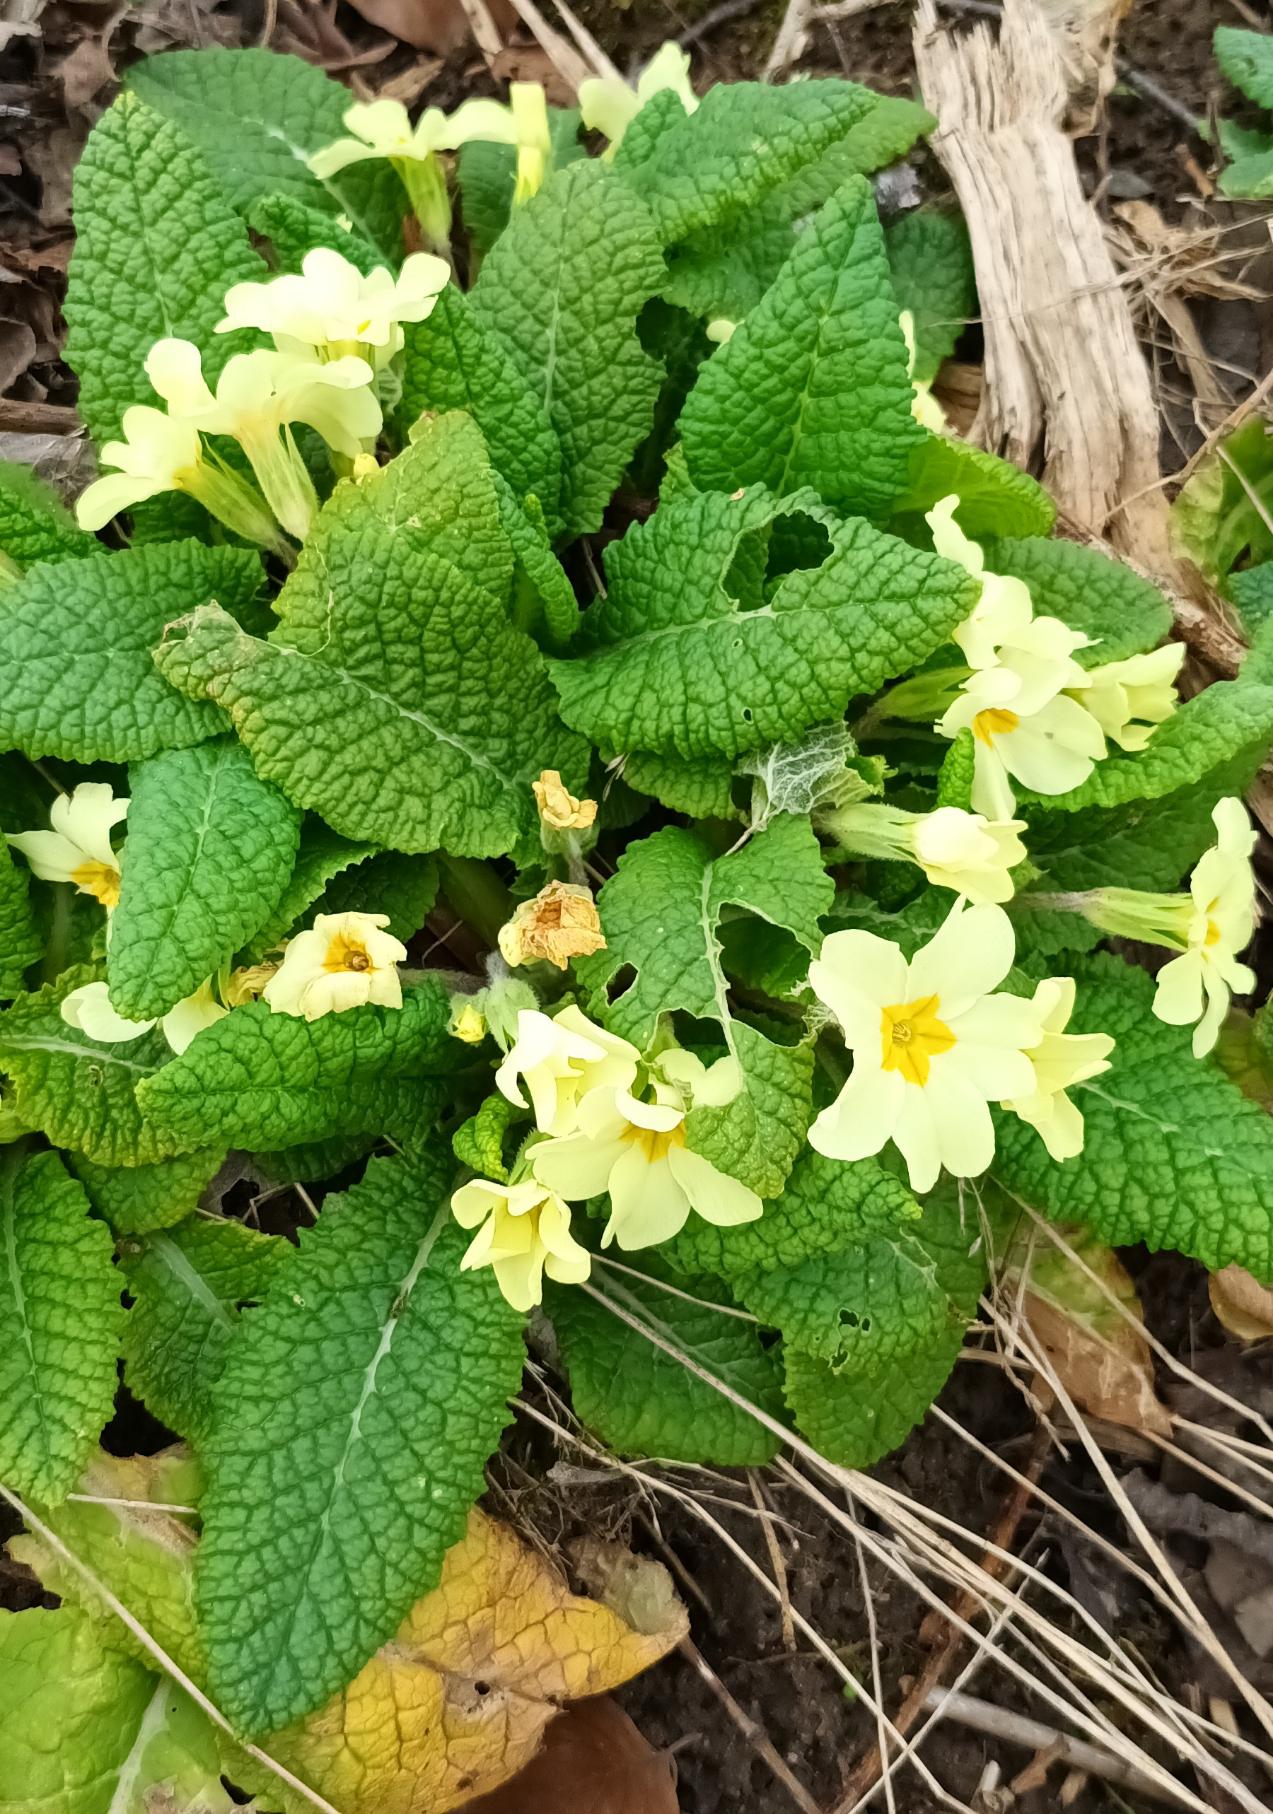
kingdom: Plantae
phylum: Tracheophyta
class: Magnoliopsida
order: Ericales
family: Primulaceae
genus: Primula
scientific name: Primula vulgaris
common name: Storblomstret kodriver
